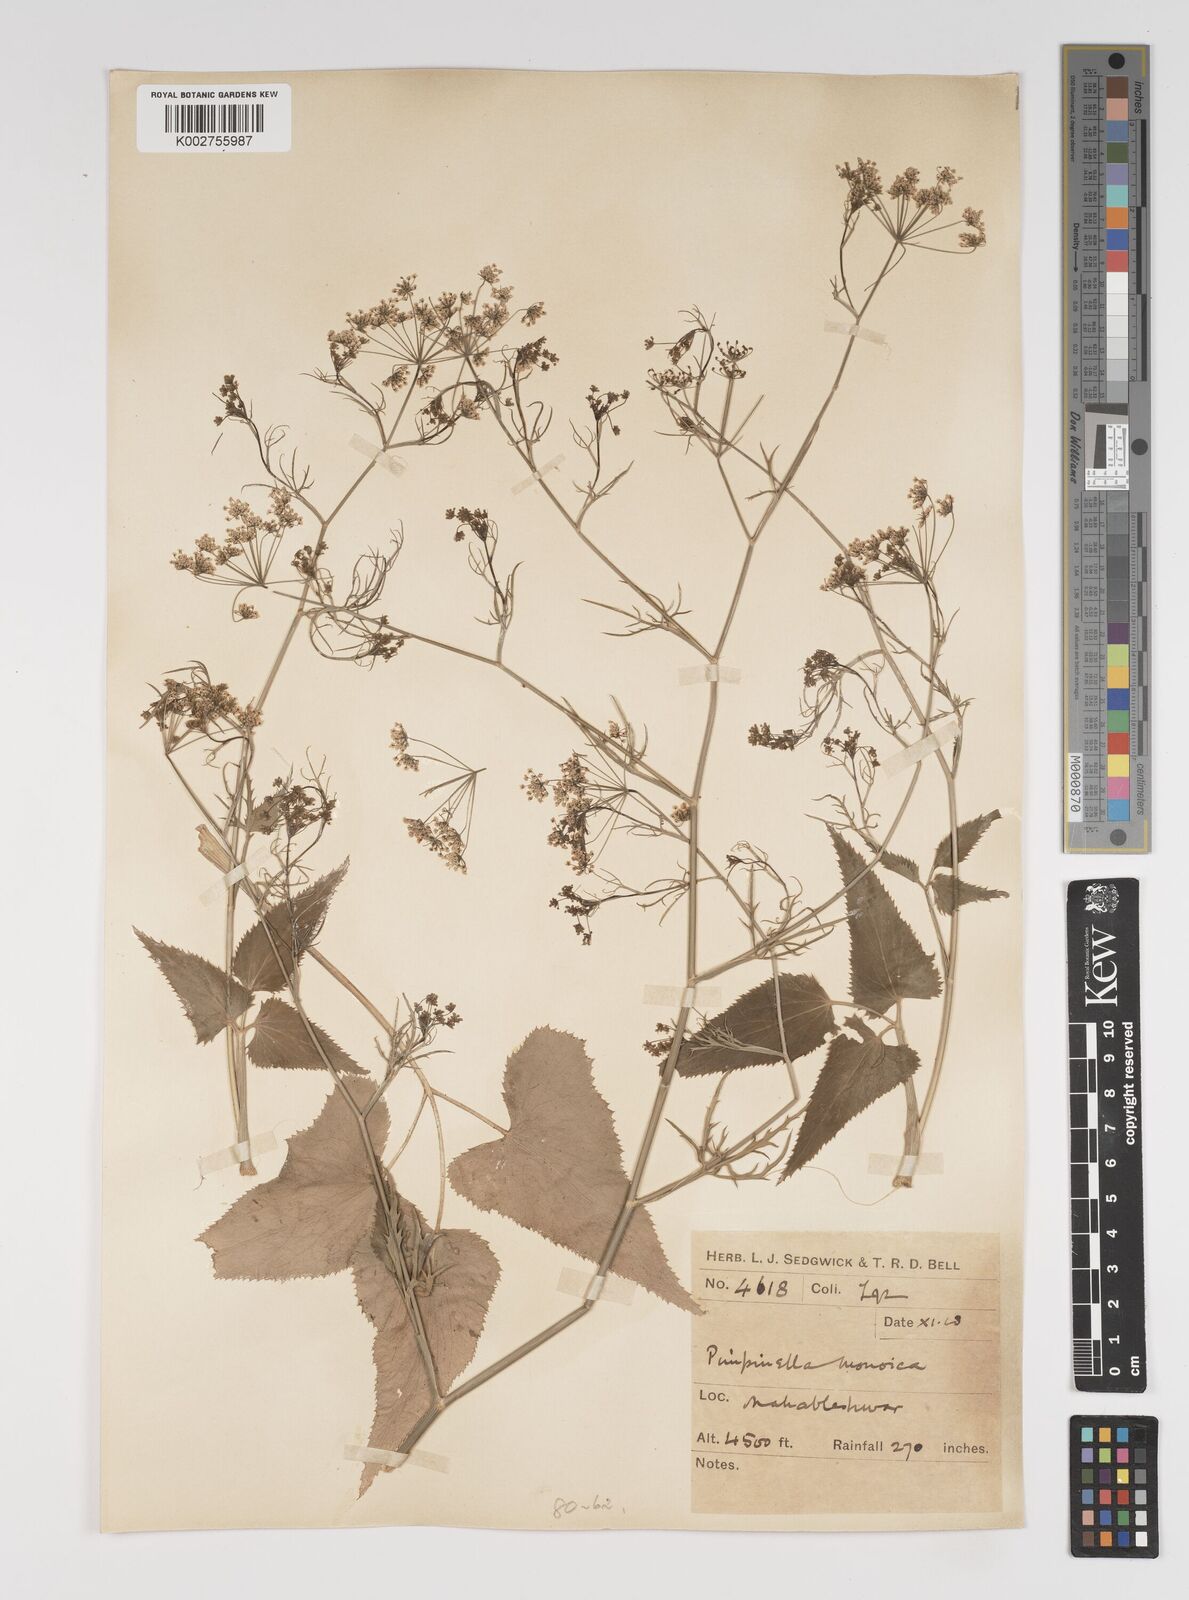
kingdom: Plantae
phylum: Tracheophyta
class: Magnoliopsida
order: Apiales
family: Apiaceae
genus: Pimpinella
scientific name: Pimpinella wallichiana
